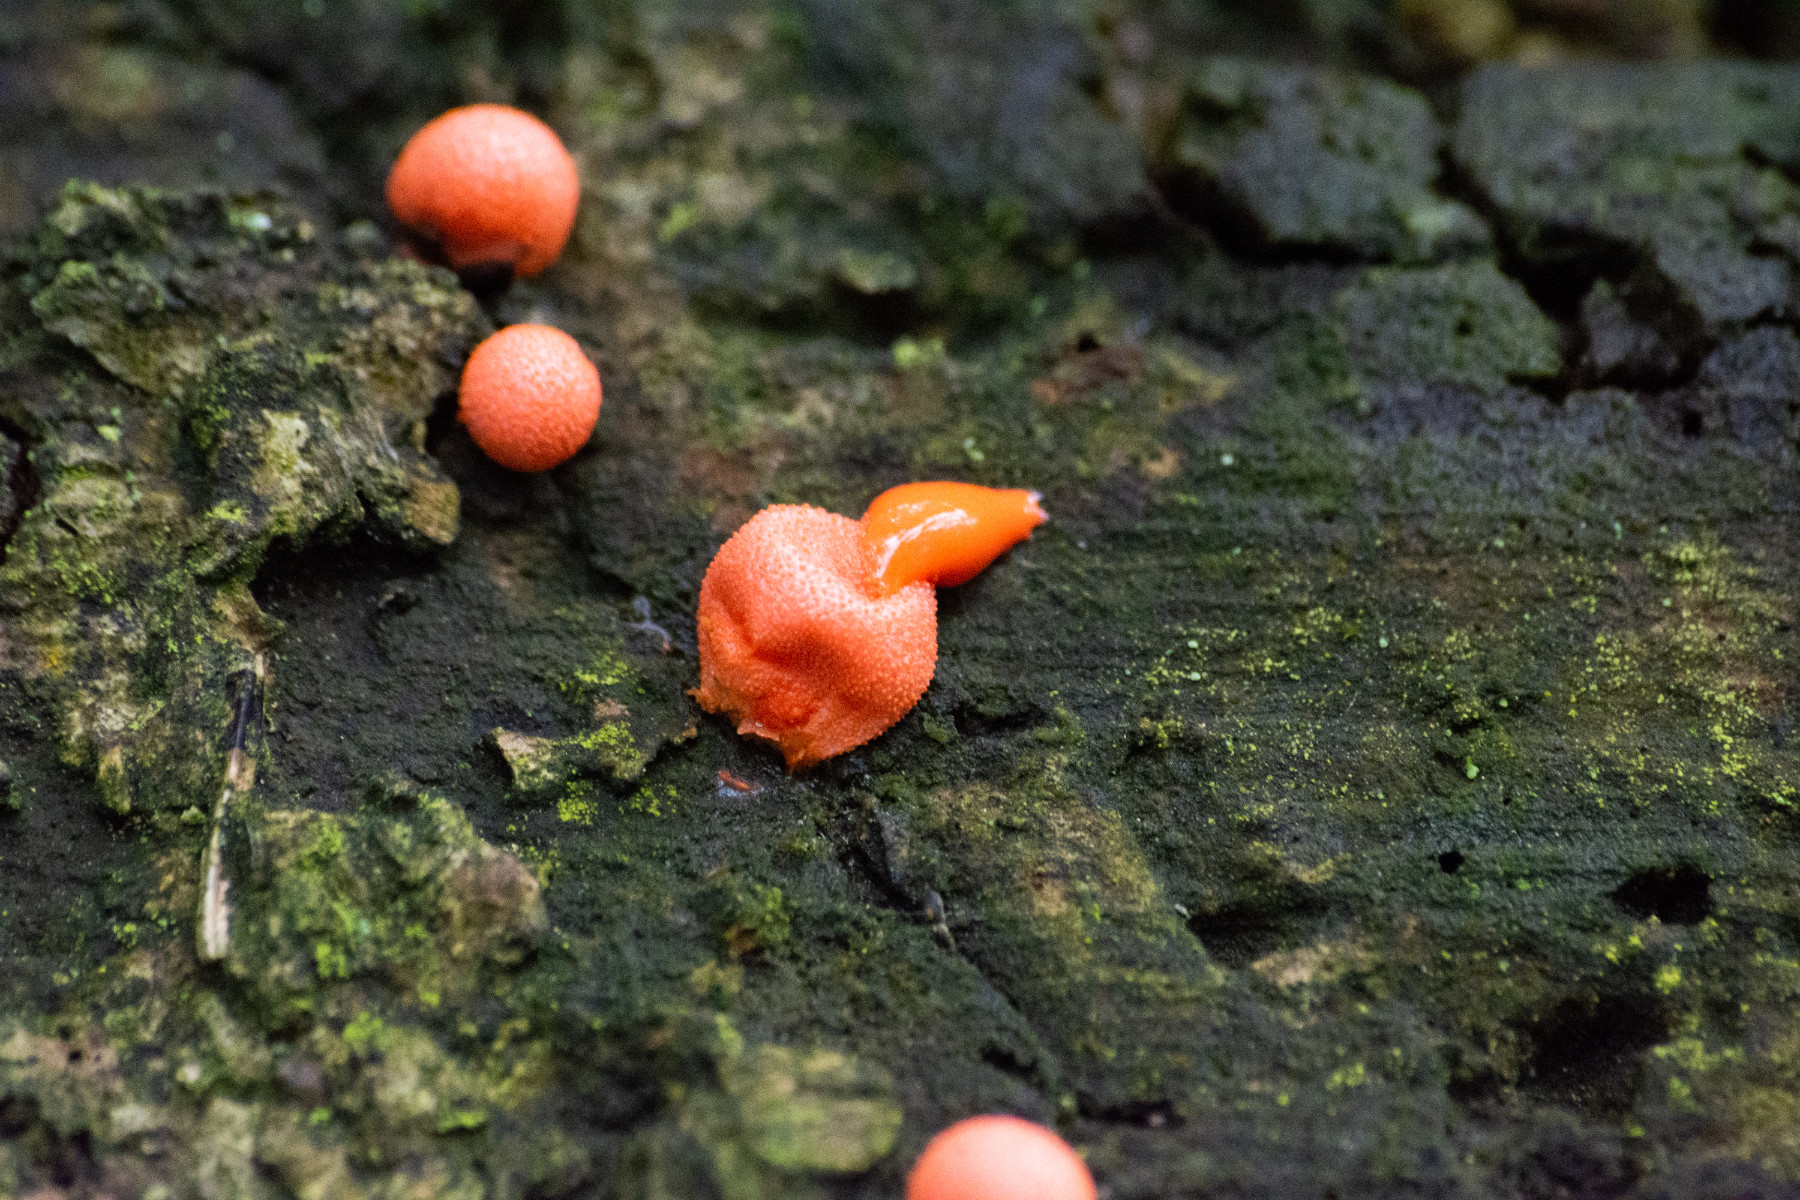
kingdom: Protozoa
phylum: Mycetozoa
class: Myxomycetes
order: Cribrariales
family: Tubiferaceae
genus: Lycogala
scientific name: Lycogala epidendrum
